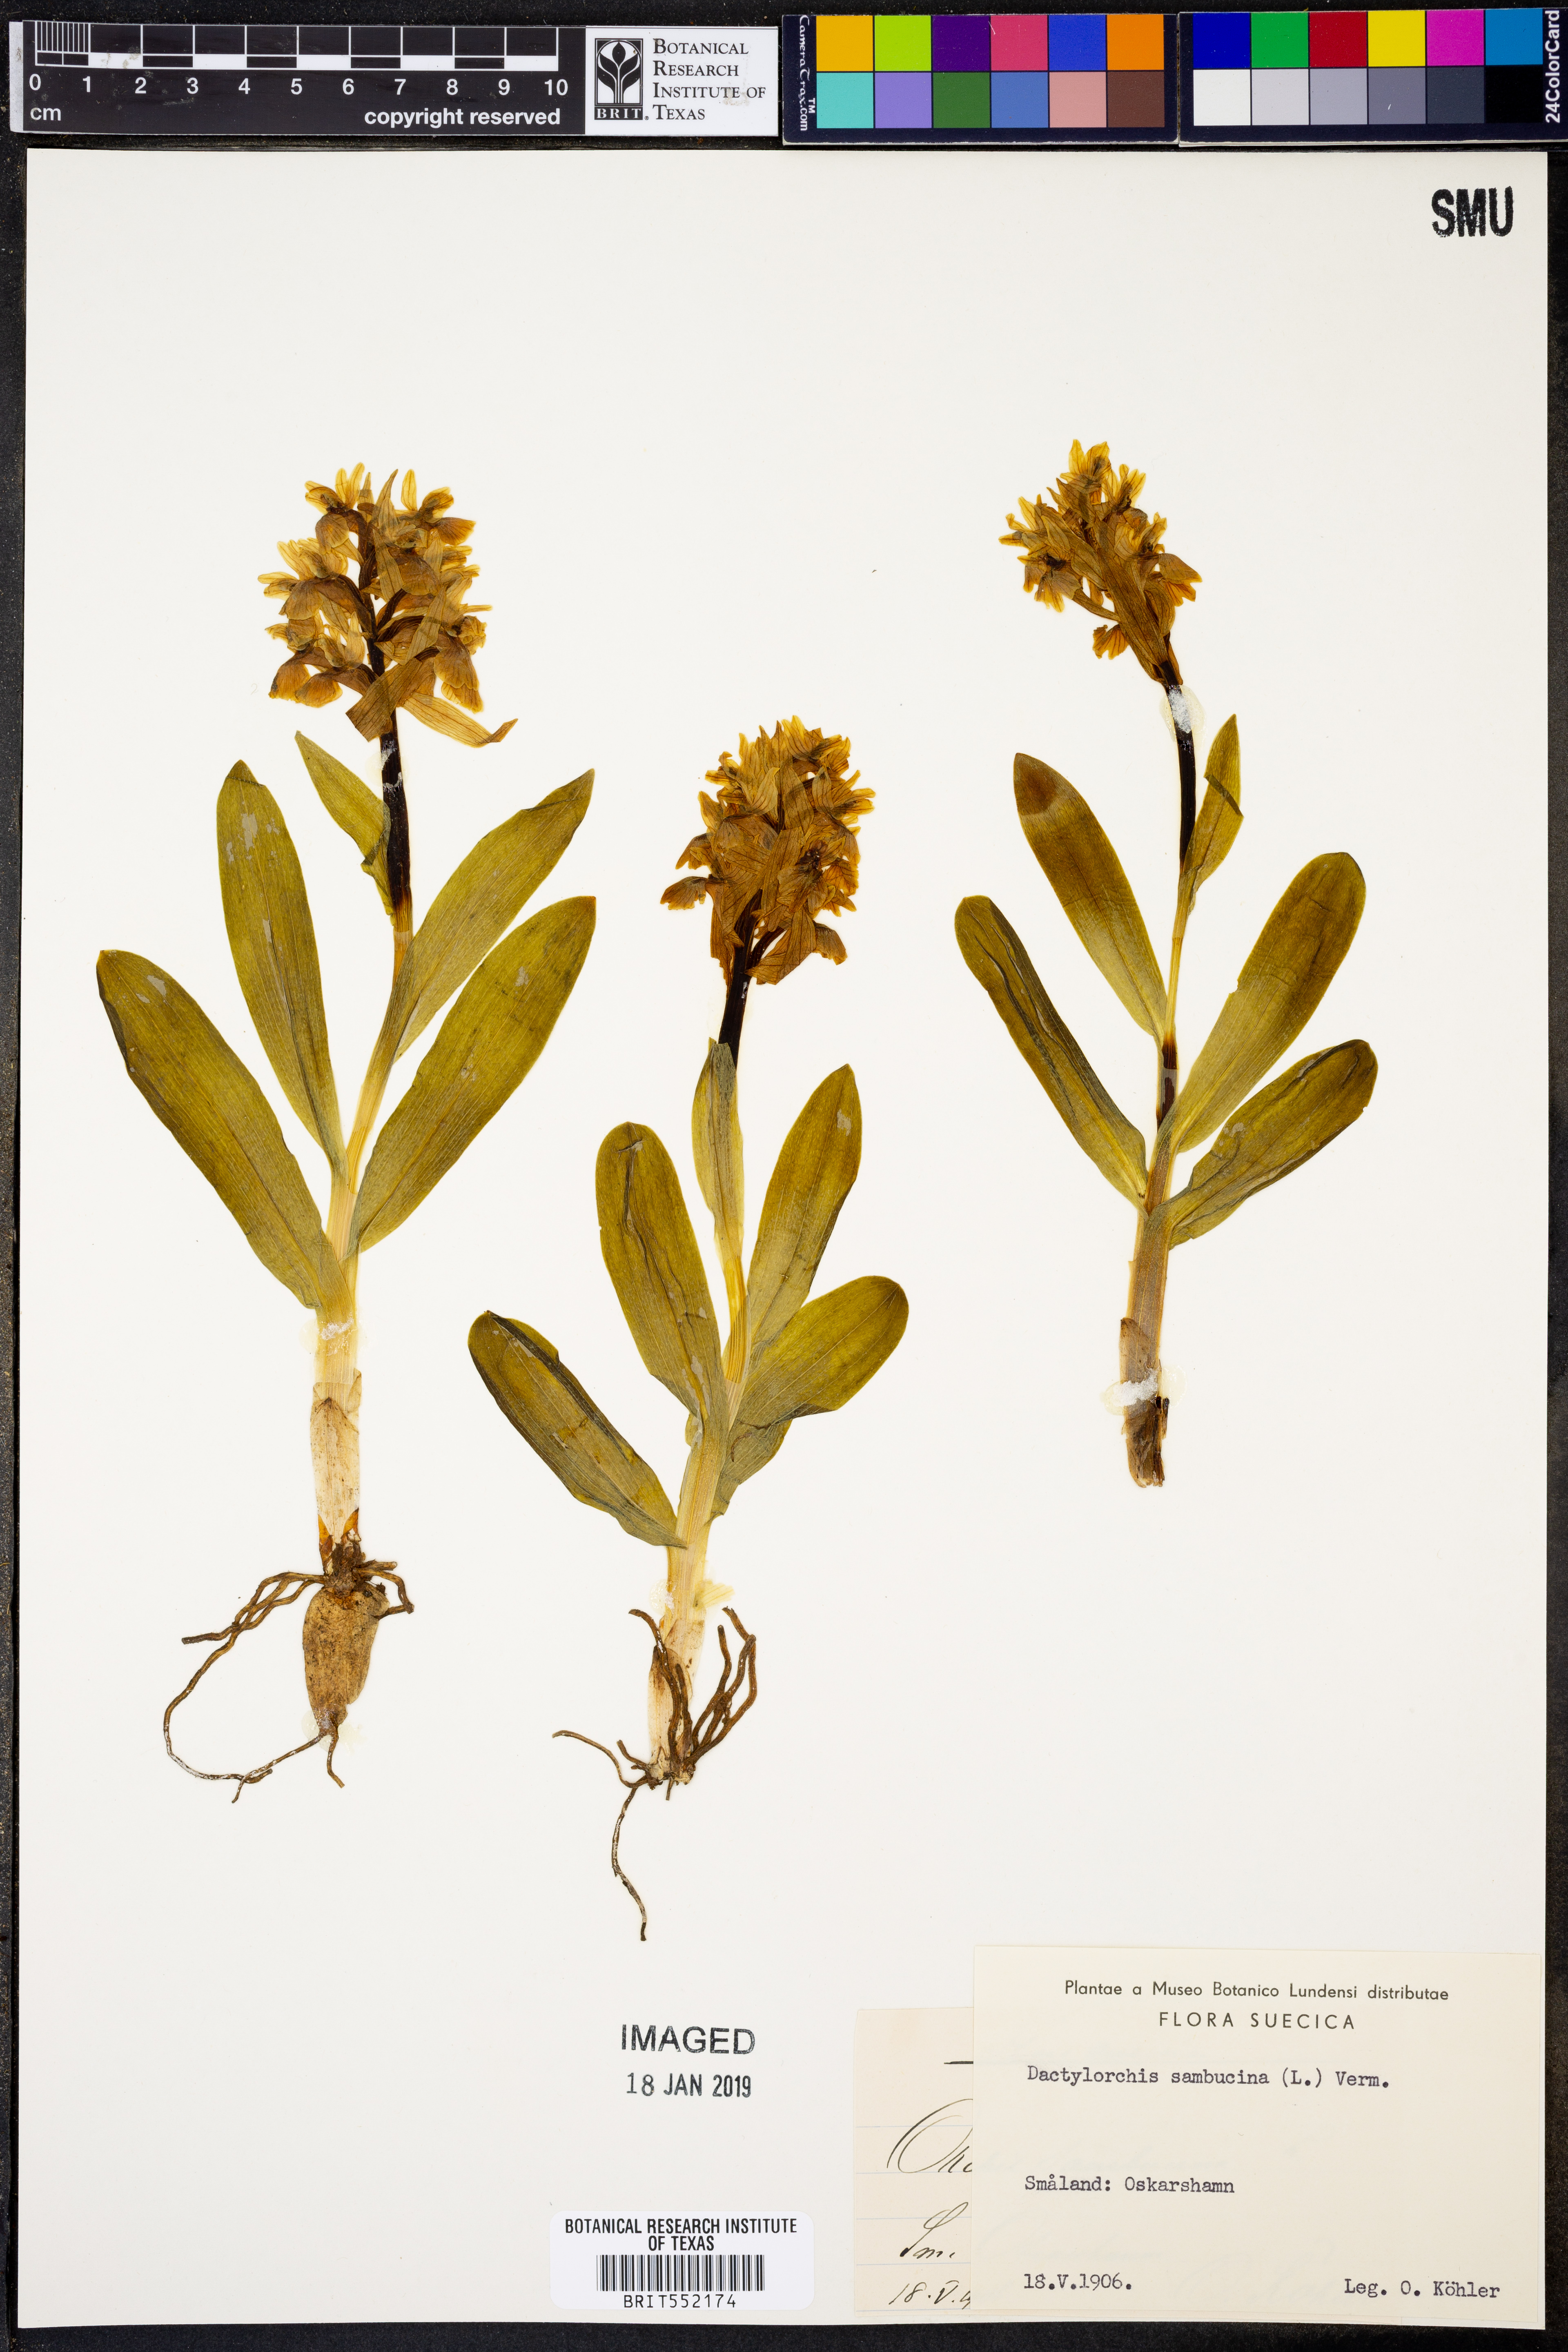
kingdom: Plantae
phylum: Tracheophyta
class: Liliopsida
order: Asparagales
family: Orchidaceae
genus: Dactylorhiza
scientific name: Dactylorhiza sambucina
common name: Elder-flowered orchid
